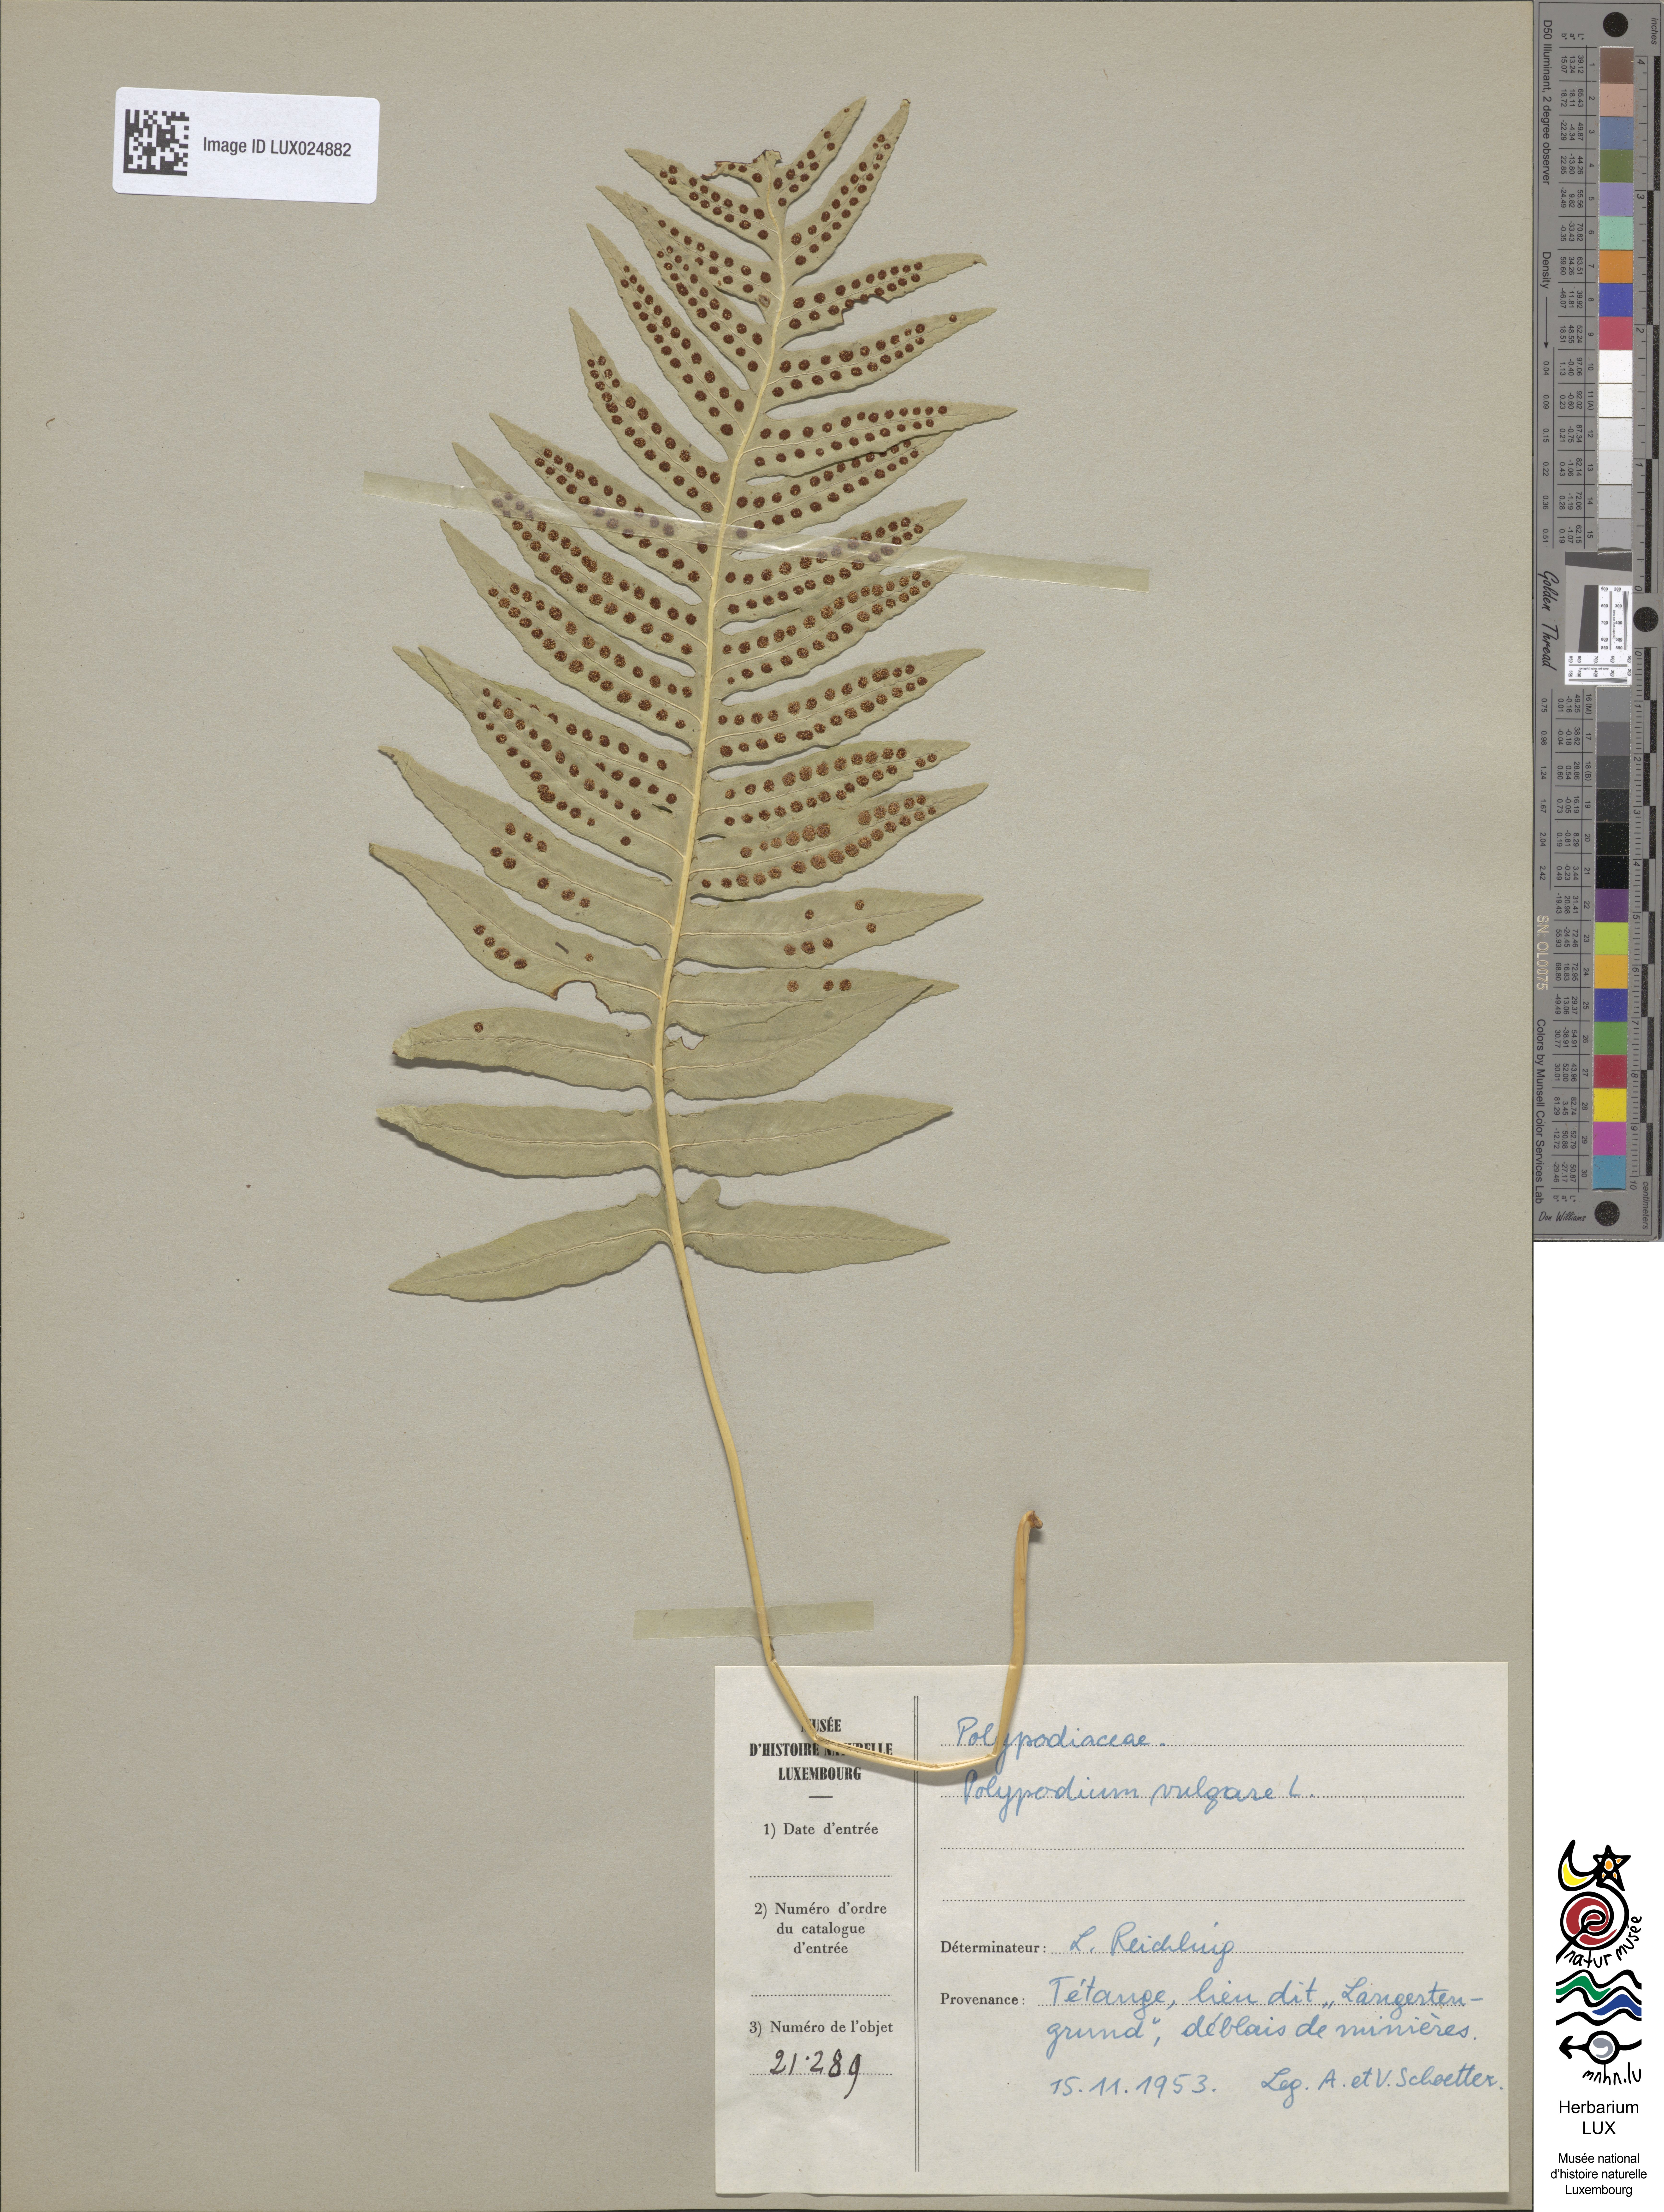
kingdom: Plantae
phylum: Tracheophyta
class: Polypodiopsida
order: Polypodiales
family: Polypodiaceae
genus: Polypodium
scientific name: Polypodium vulgare
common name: Common polypody
